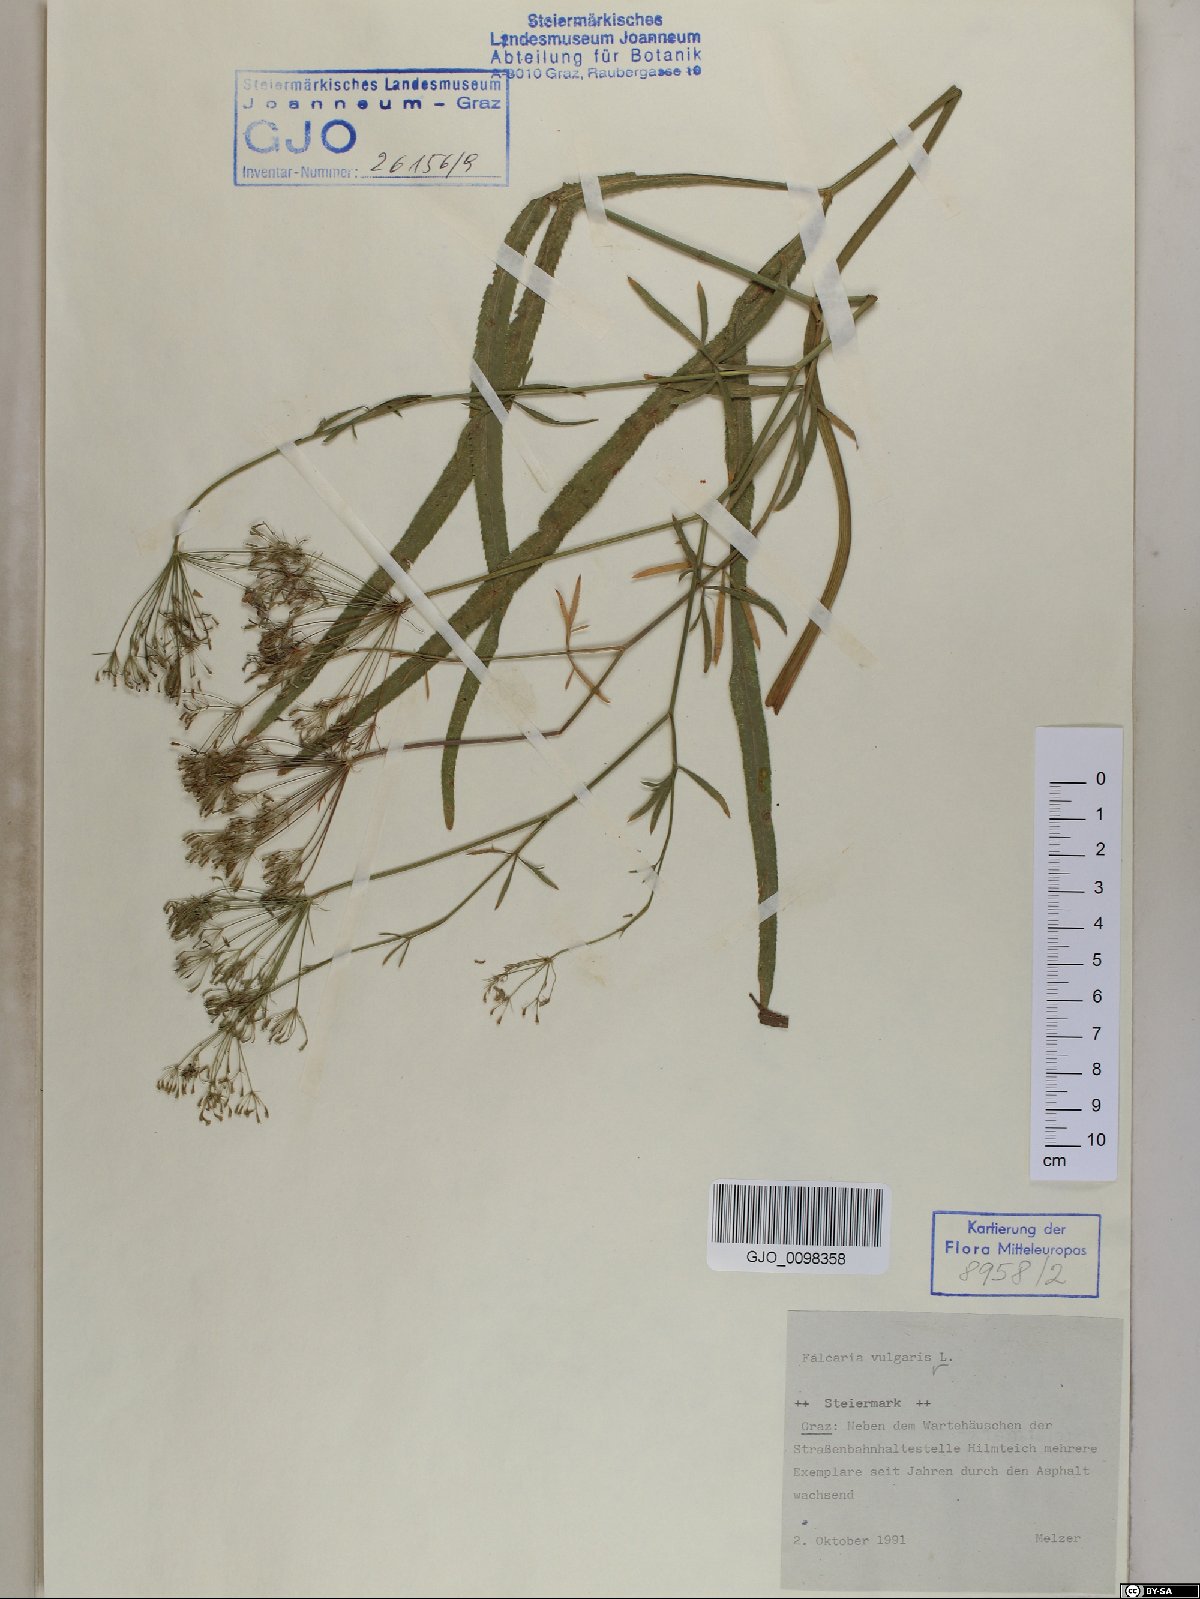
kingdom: Plantae
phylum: Tracheophyta
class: Magnoliopsida
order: Apiales
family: Apiaceae
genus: Falcaria
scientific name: Falcaria vulgaris
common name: Longleaf
